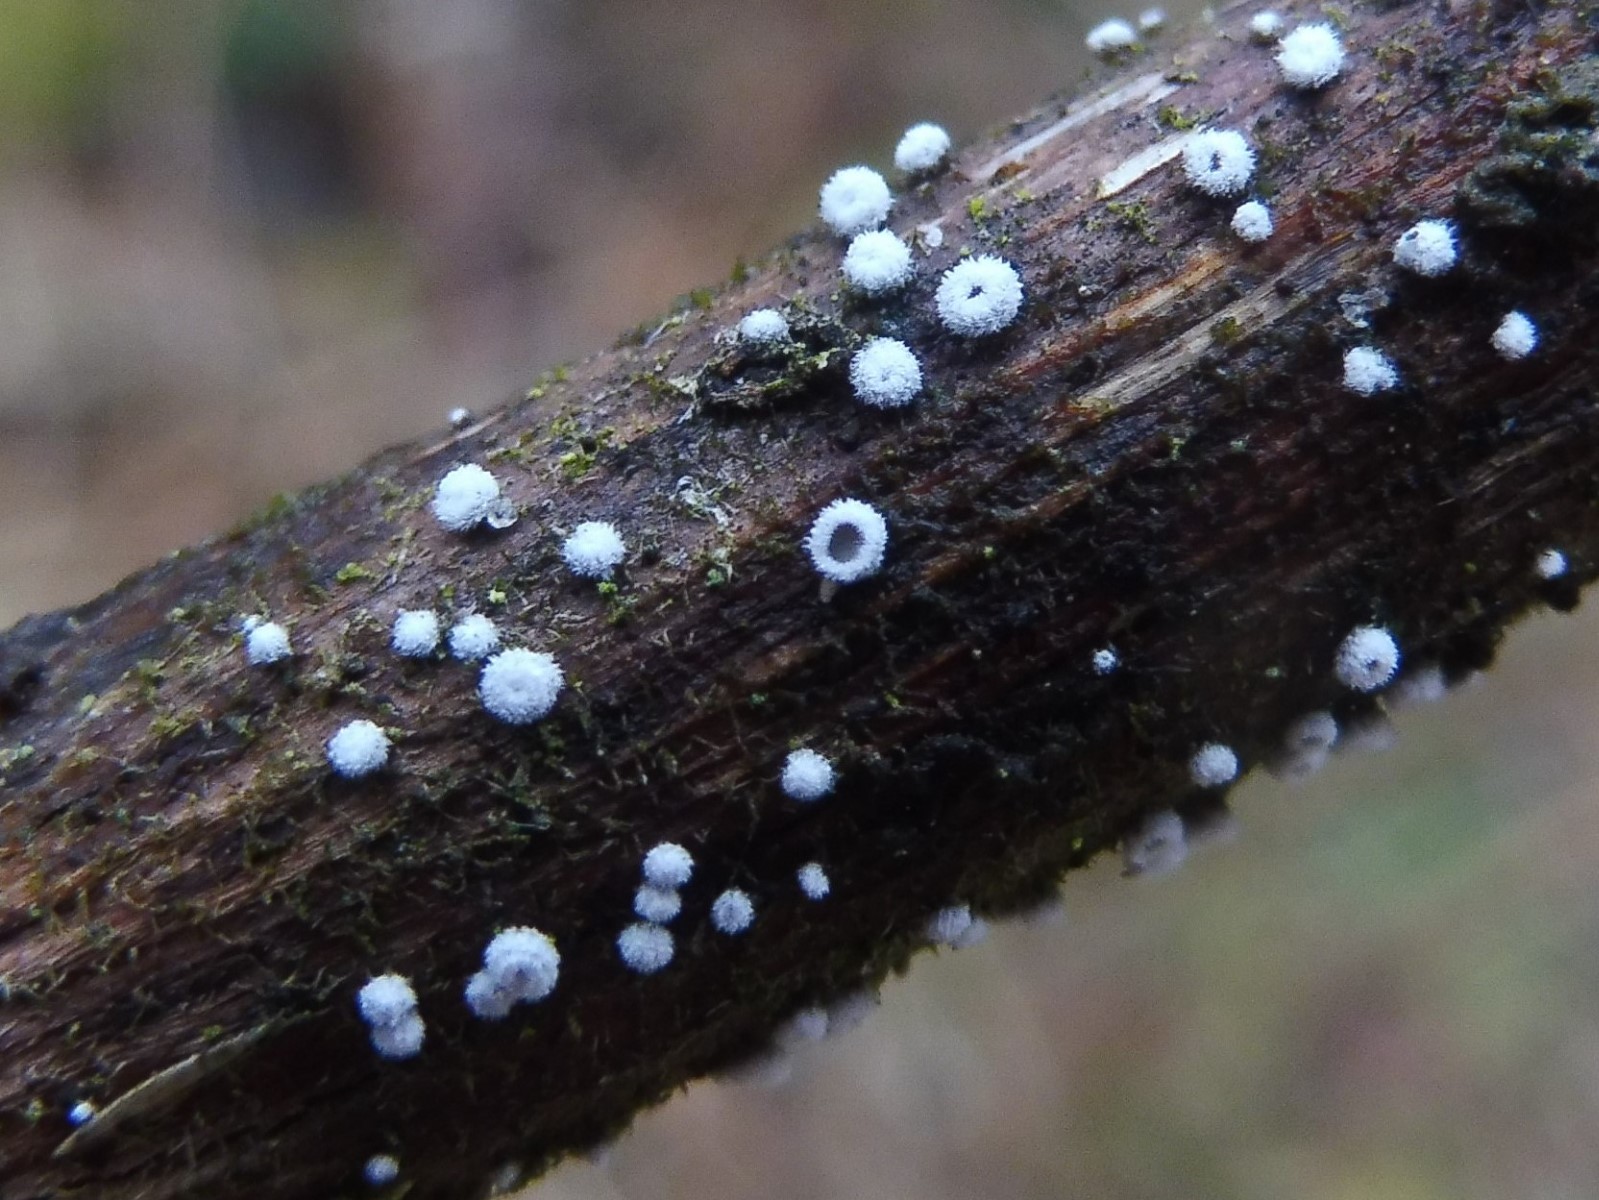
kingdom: Fungi
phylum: Basidiomycota
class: Agaricomycetes
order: Agaricales
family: Niaceae
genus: Lachnella
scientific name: Lachnella alboviolascens
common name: grå frynserede
